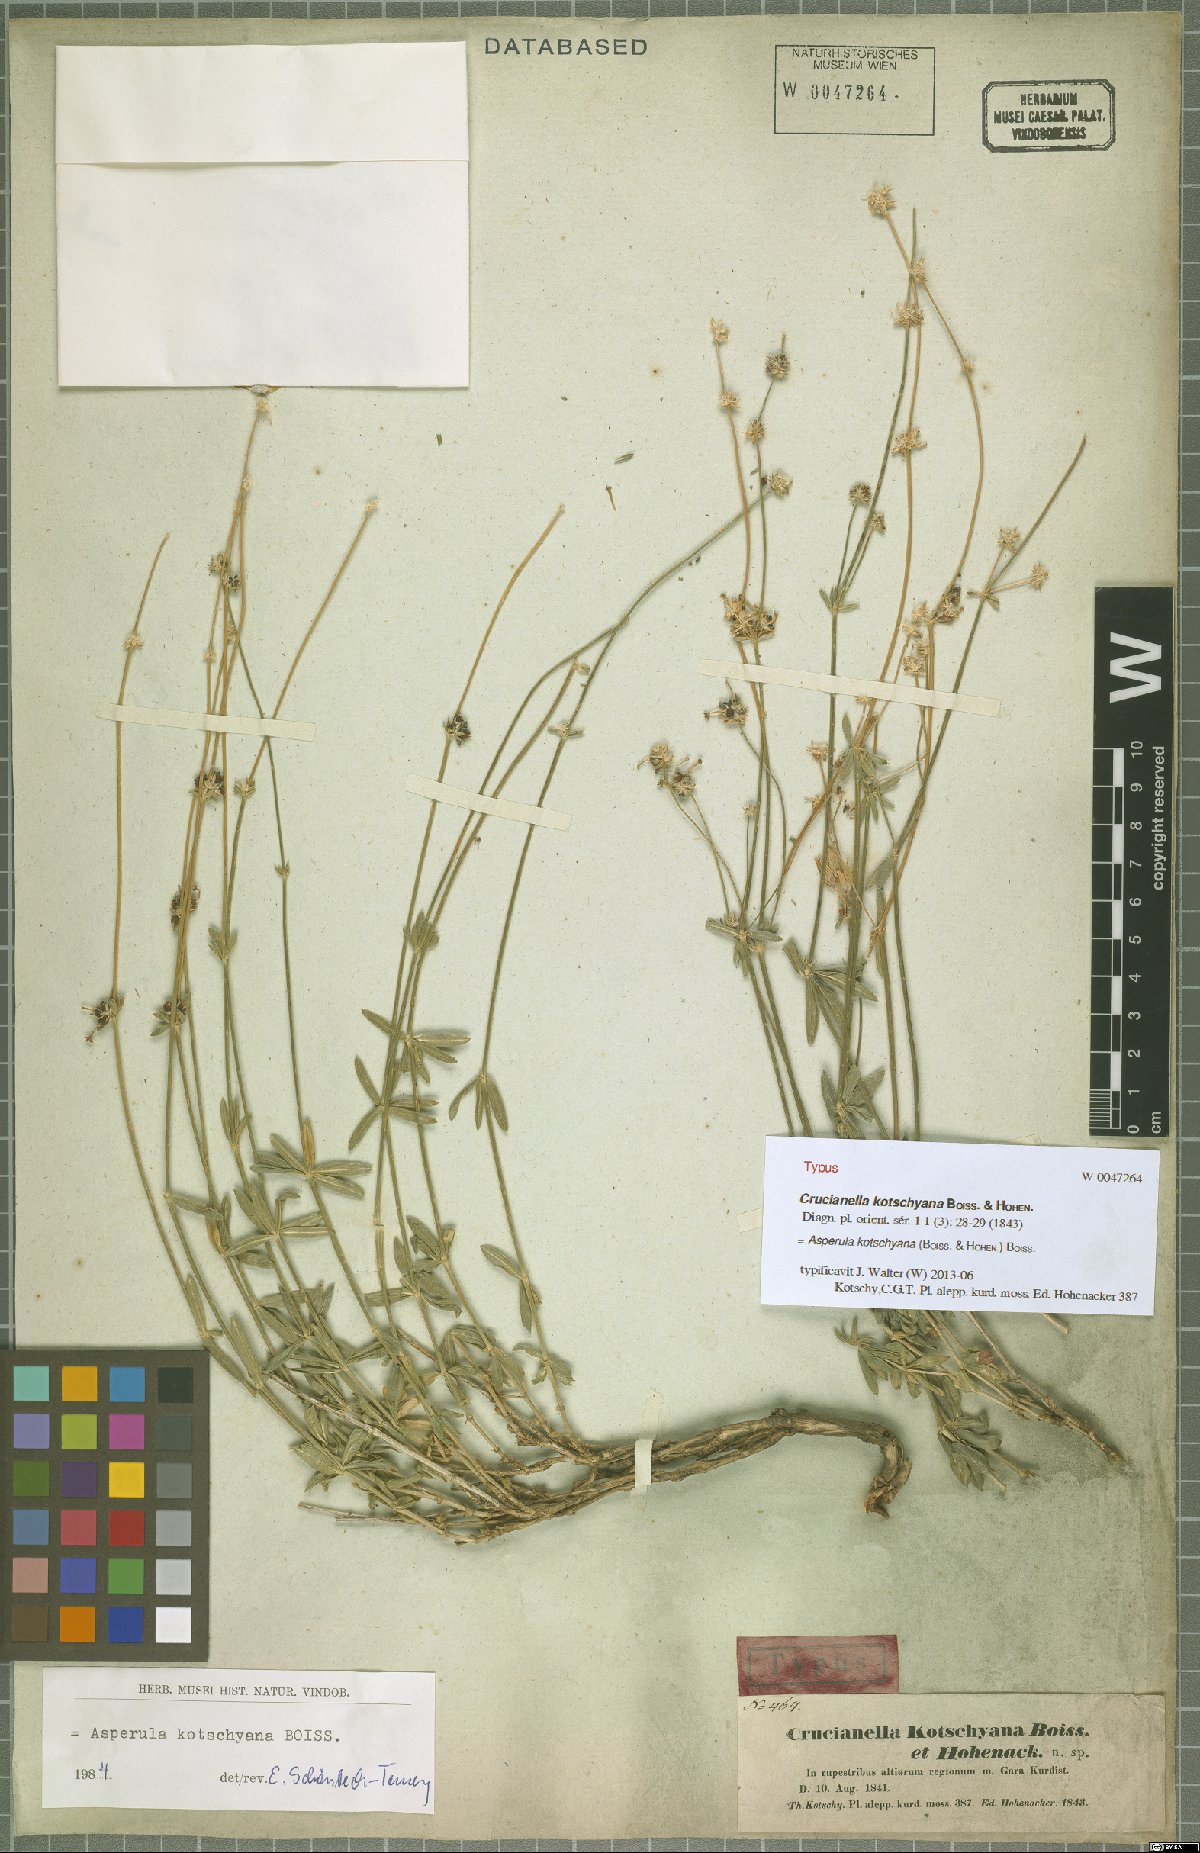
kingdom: Plantae
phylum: Tracheophyta
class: Magnoliopsida
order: Gentianales
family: Rubiaceae
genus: Asperula
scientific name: Asperula kotschyana
